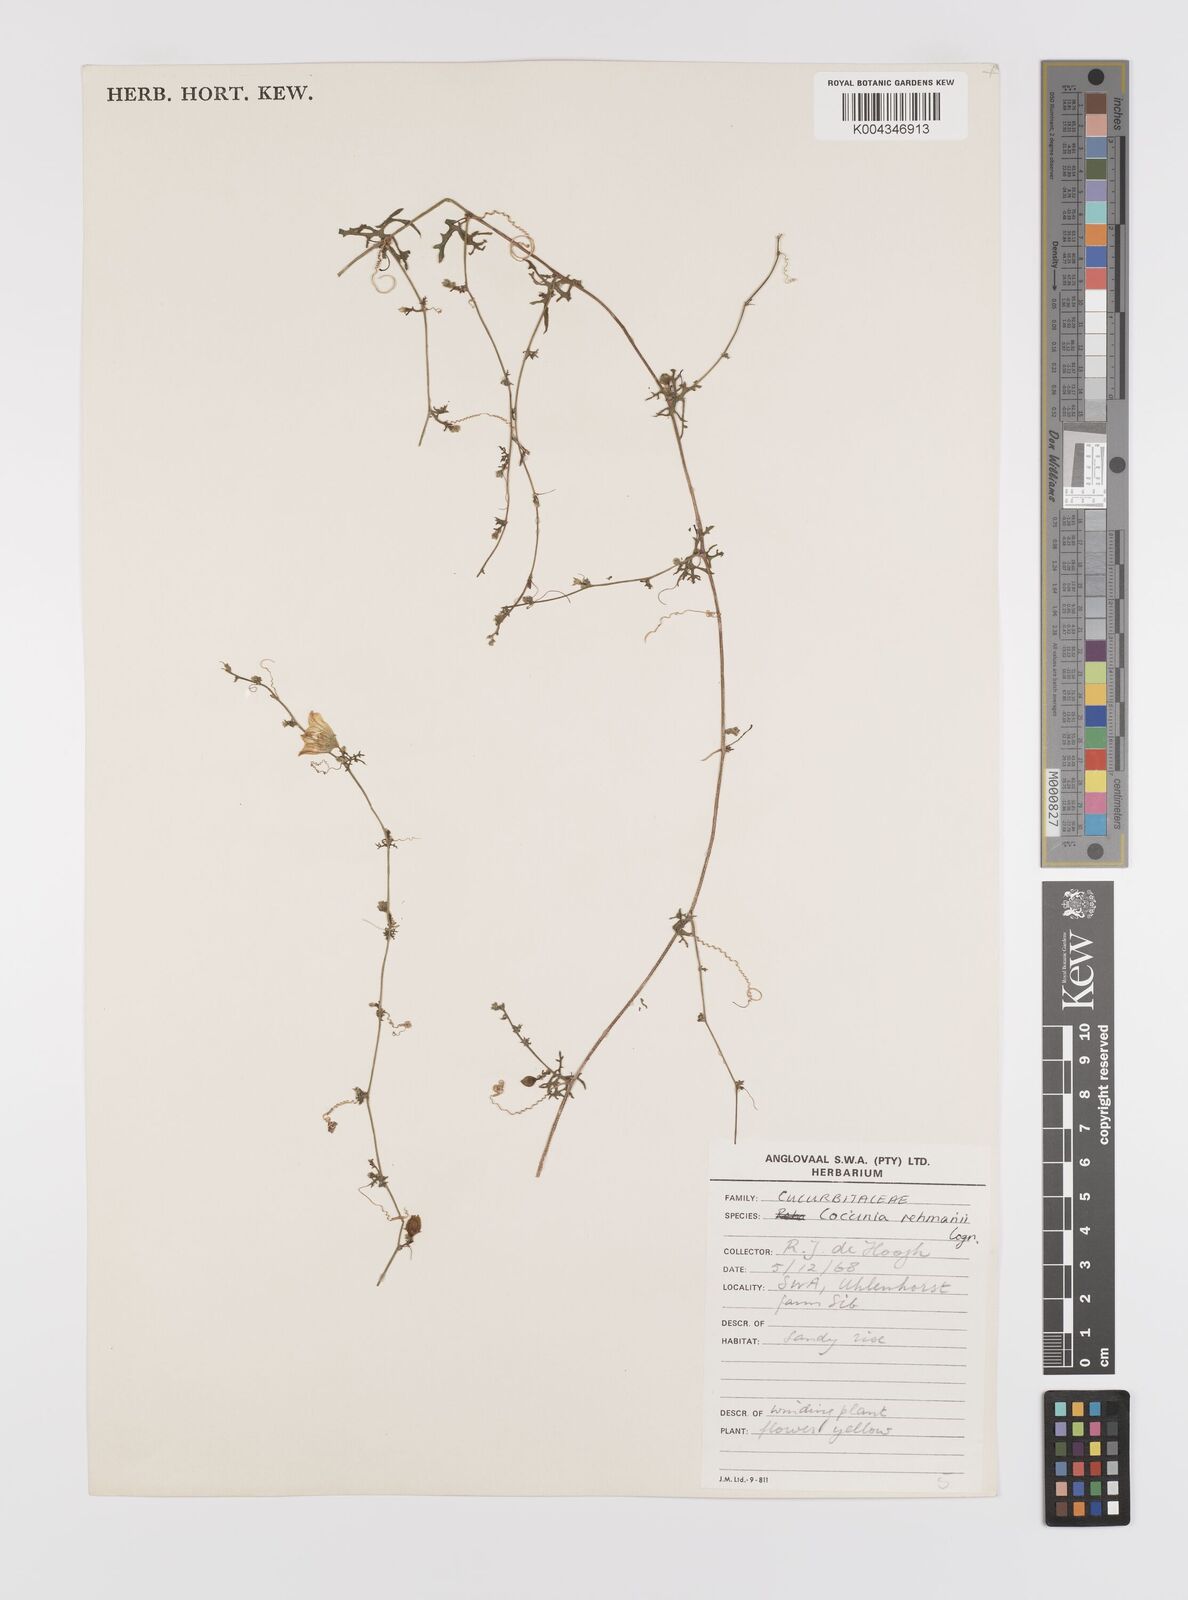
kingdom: Plantae
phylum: Tracheophyta
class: Magnoliopsida
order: Cucurbitales
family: Cucurbitaceae
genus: Coccinia
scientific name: Coccinia rehmannii
